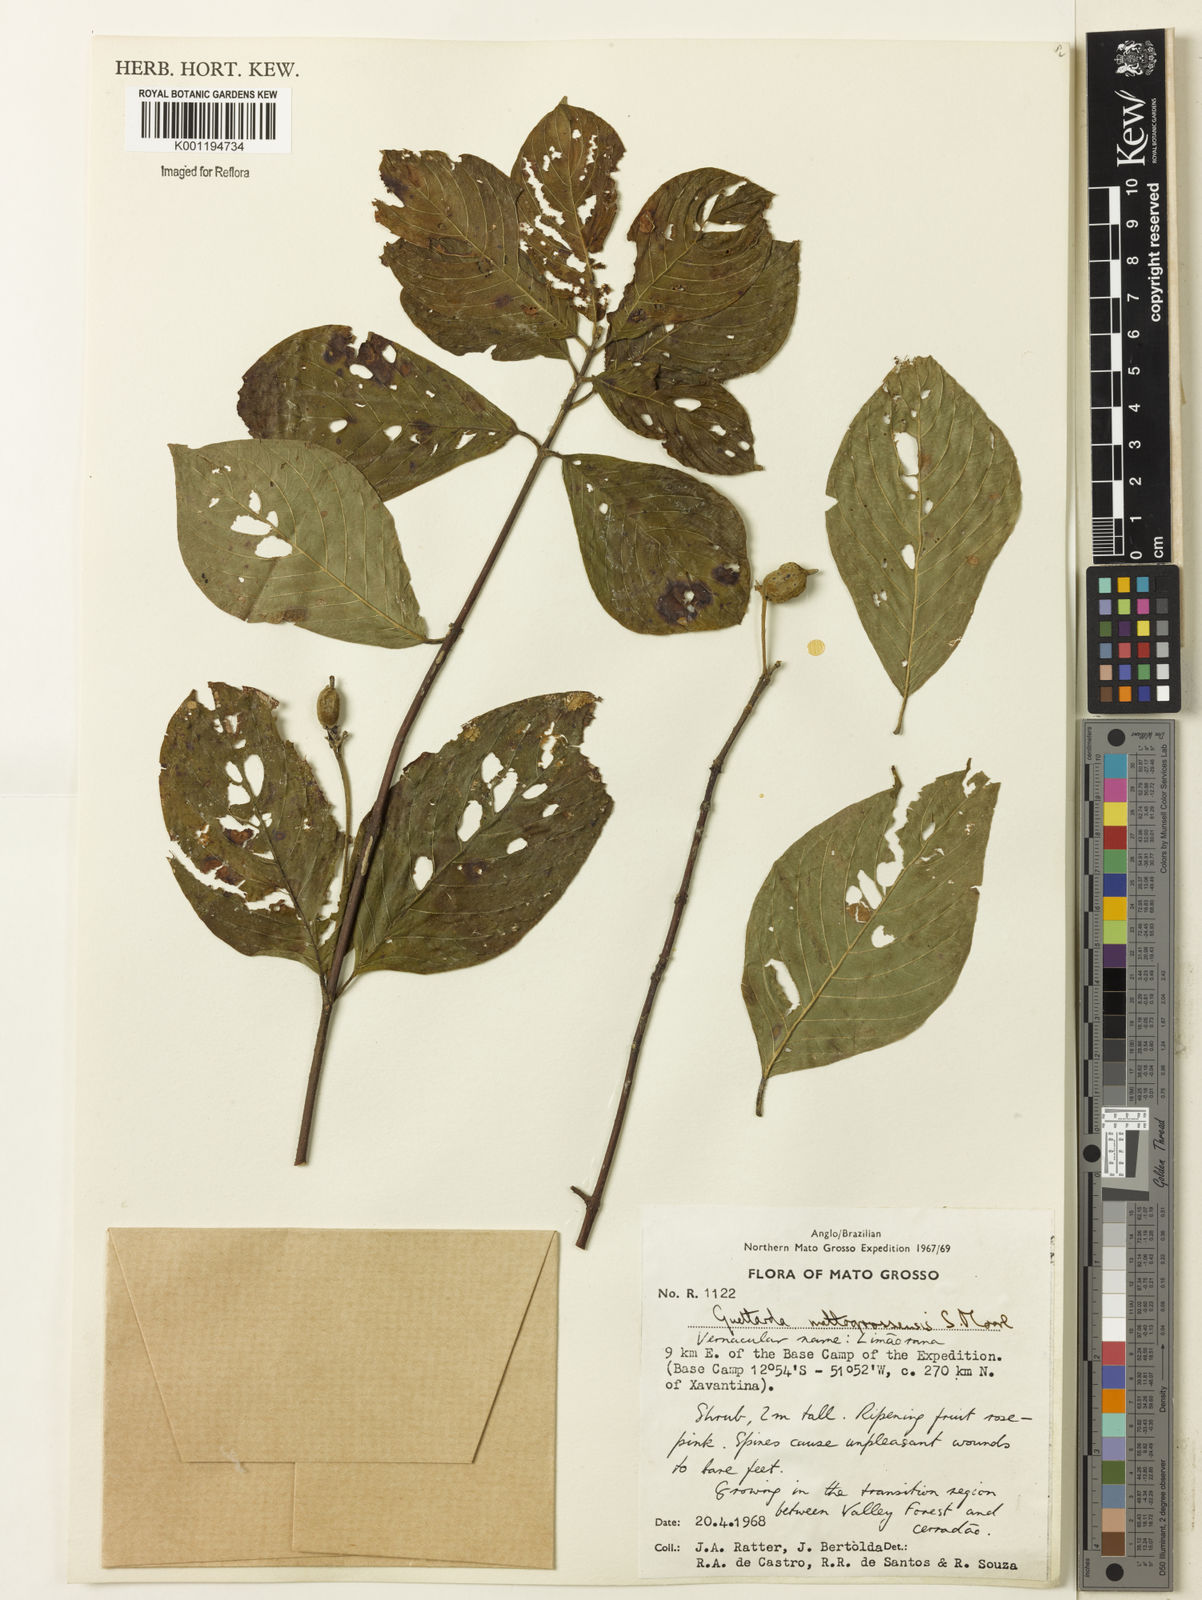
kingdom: Plantae
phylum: Tracheophyta
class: Magnoliopsida
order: Gentianales
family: Rubiaceae
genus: Guettarda
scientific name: Guettarda mattogrossensis
